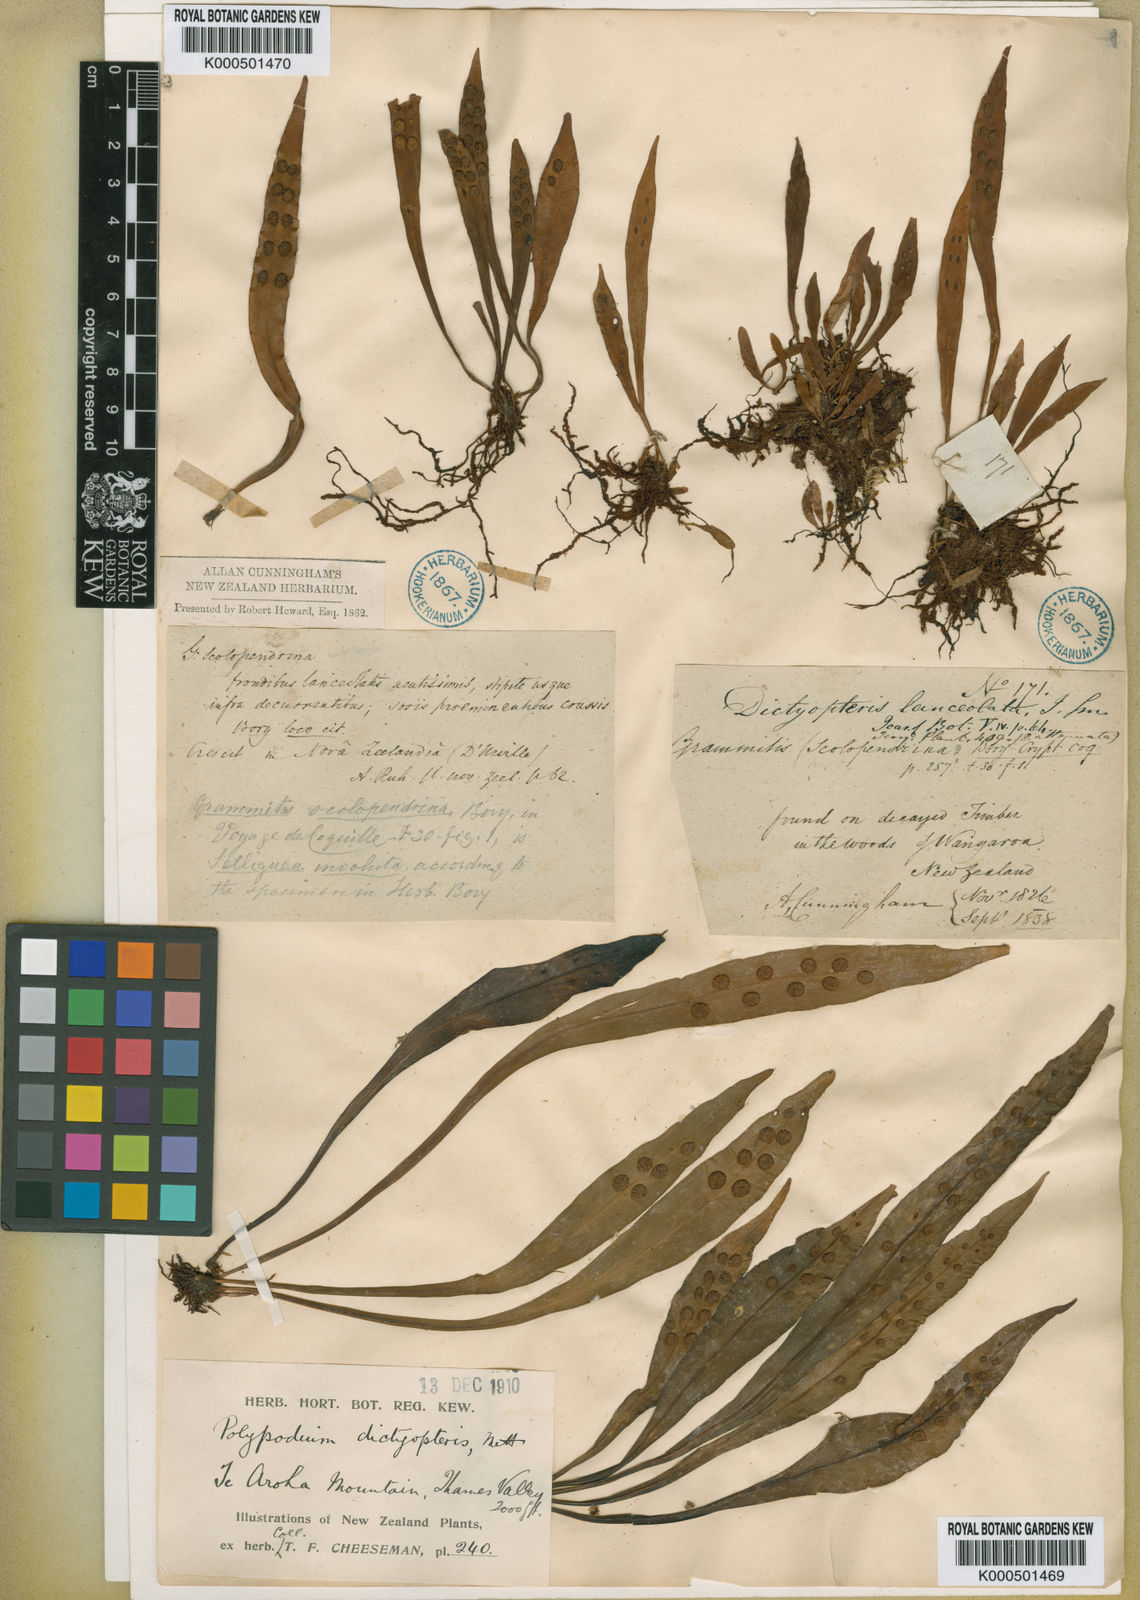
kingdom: Plantae
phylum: Tracheophyta
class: Polypodiopsida
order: Polypodiales
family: Polypodiaceae
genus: Loxogramme
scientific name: Loxogramme dictyopteris
